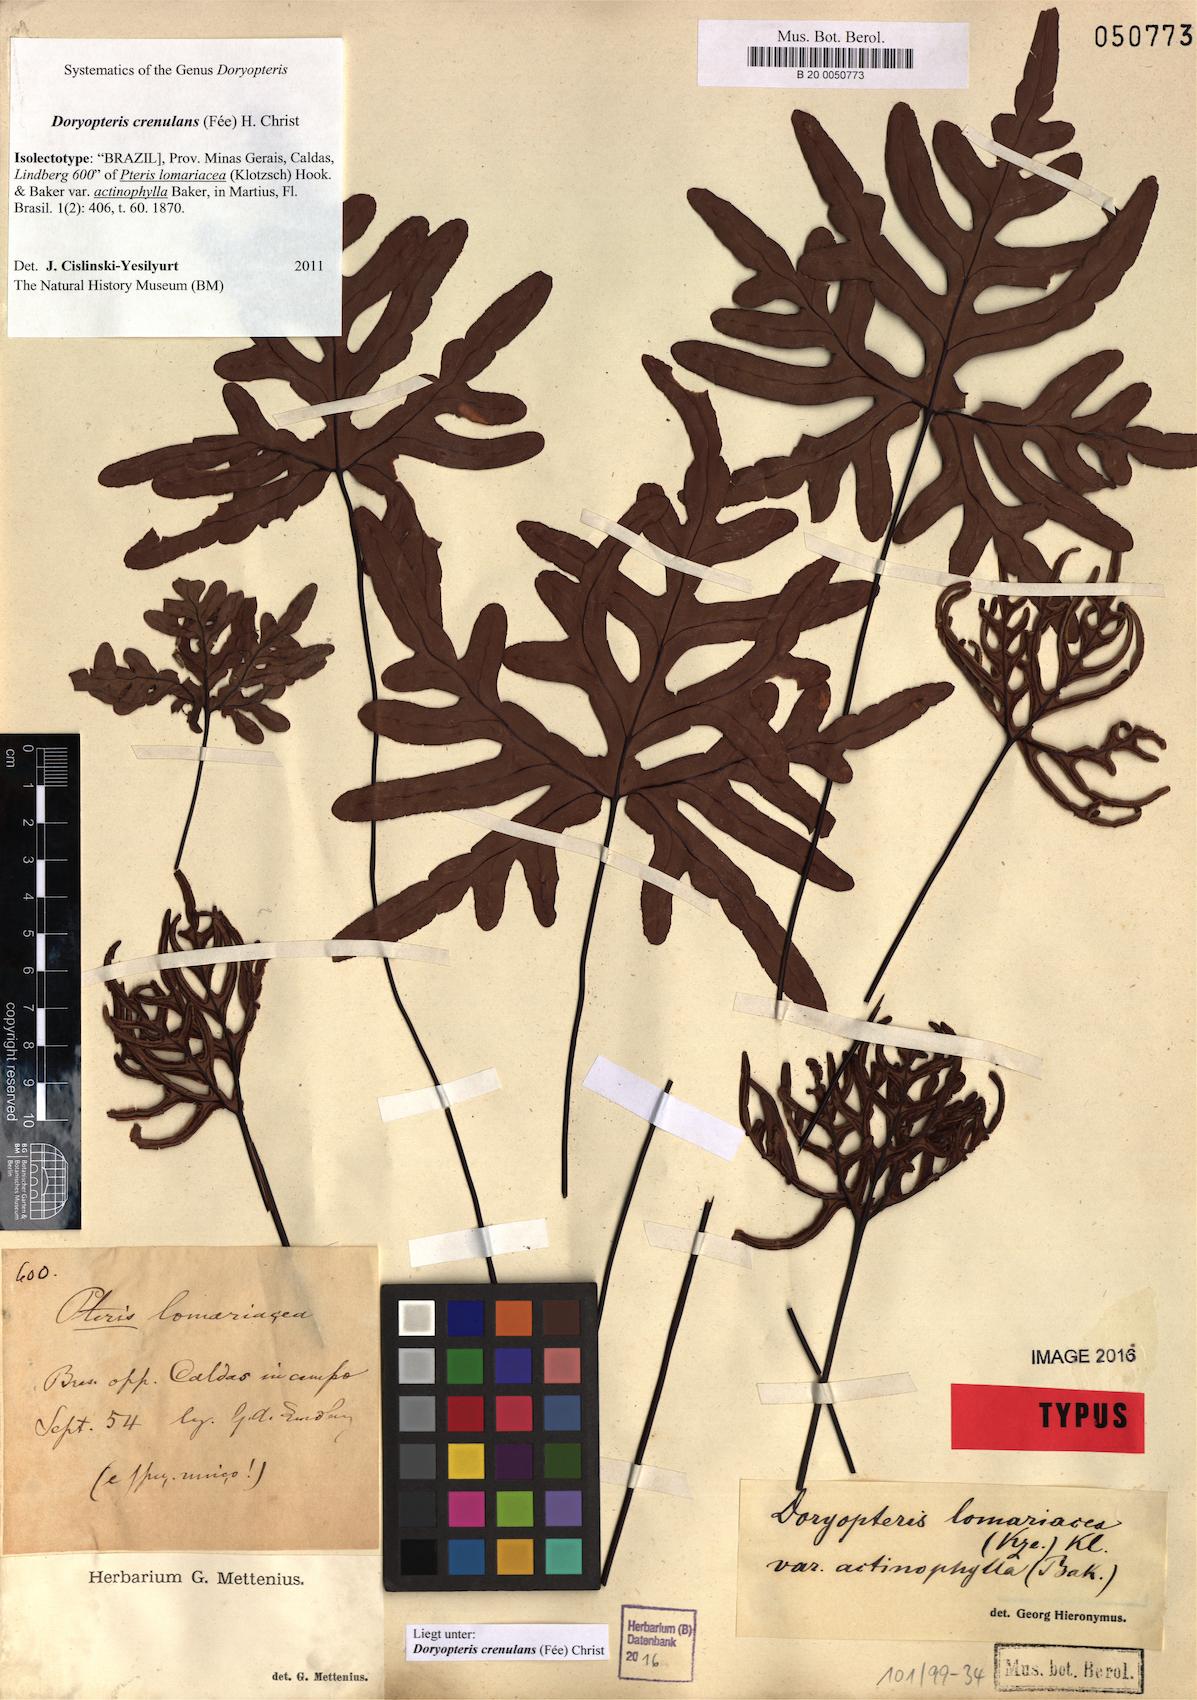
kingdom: Plantae
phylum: Tracheophyta
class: Polypodiopsida
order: Polypodiales
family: Pteridaceae
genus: Lytoneuron
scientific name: Lytoneuron crenulans
